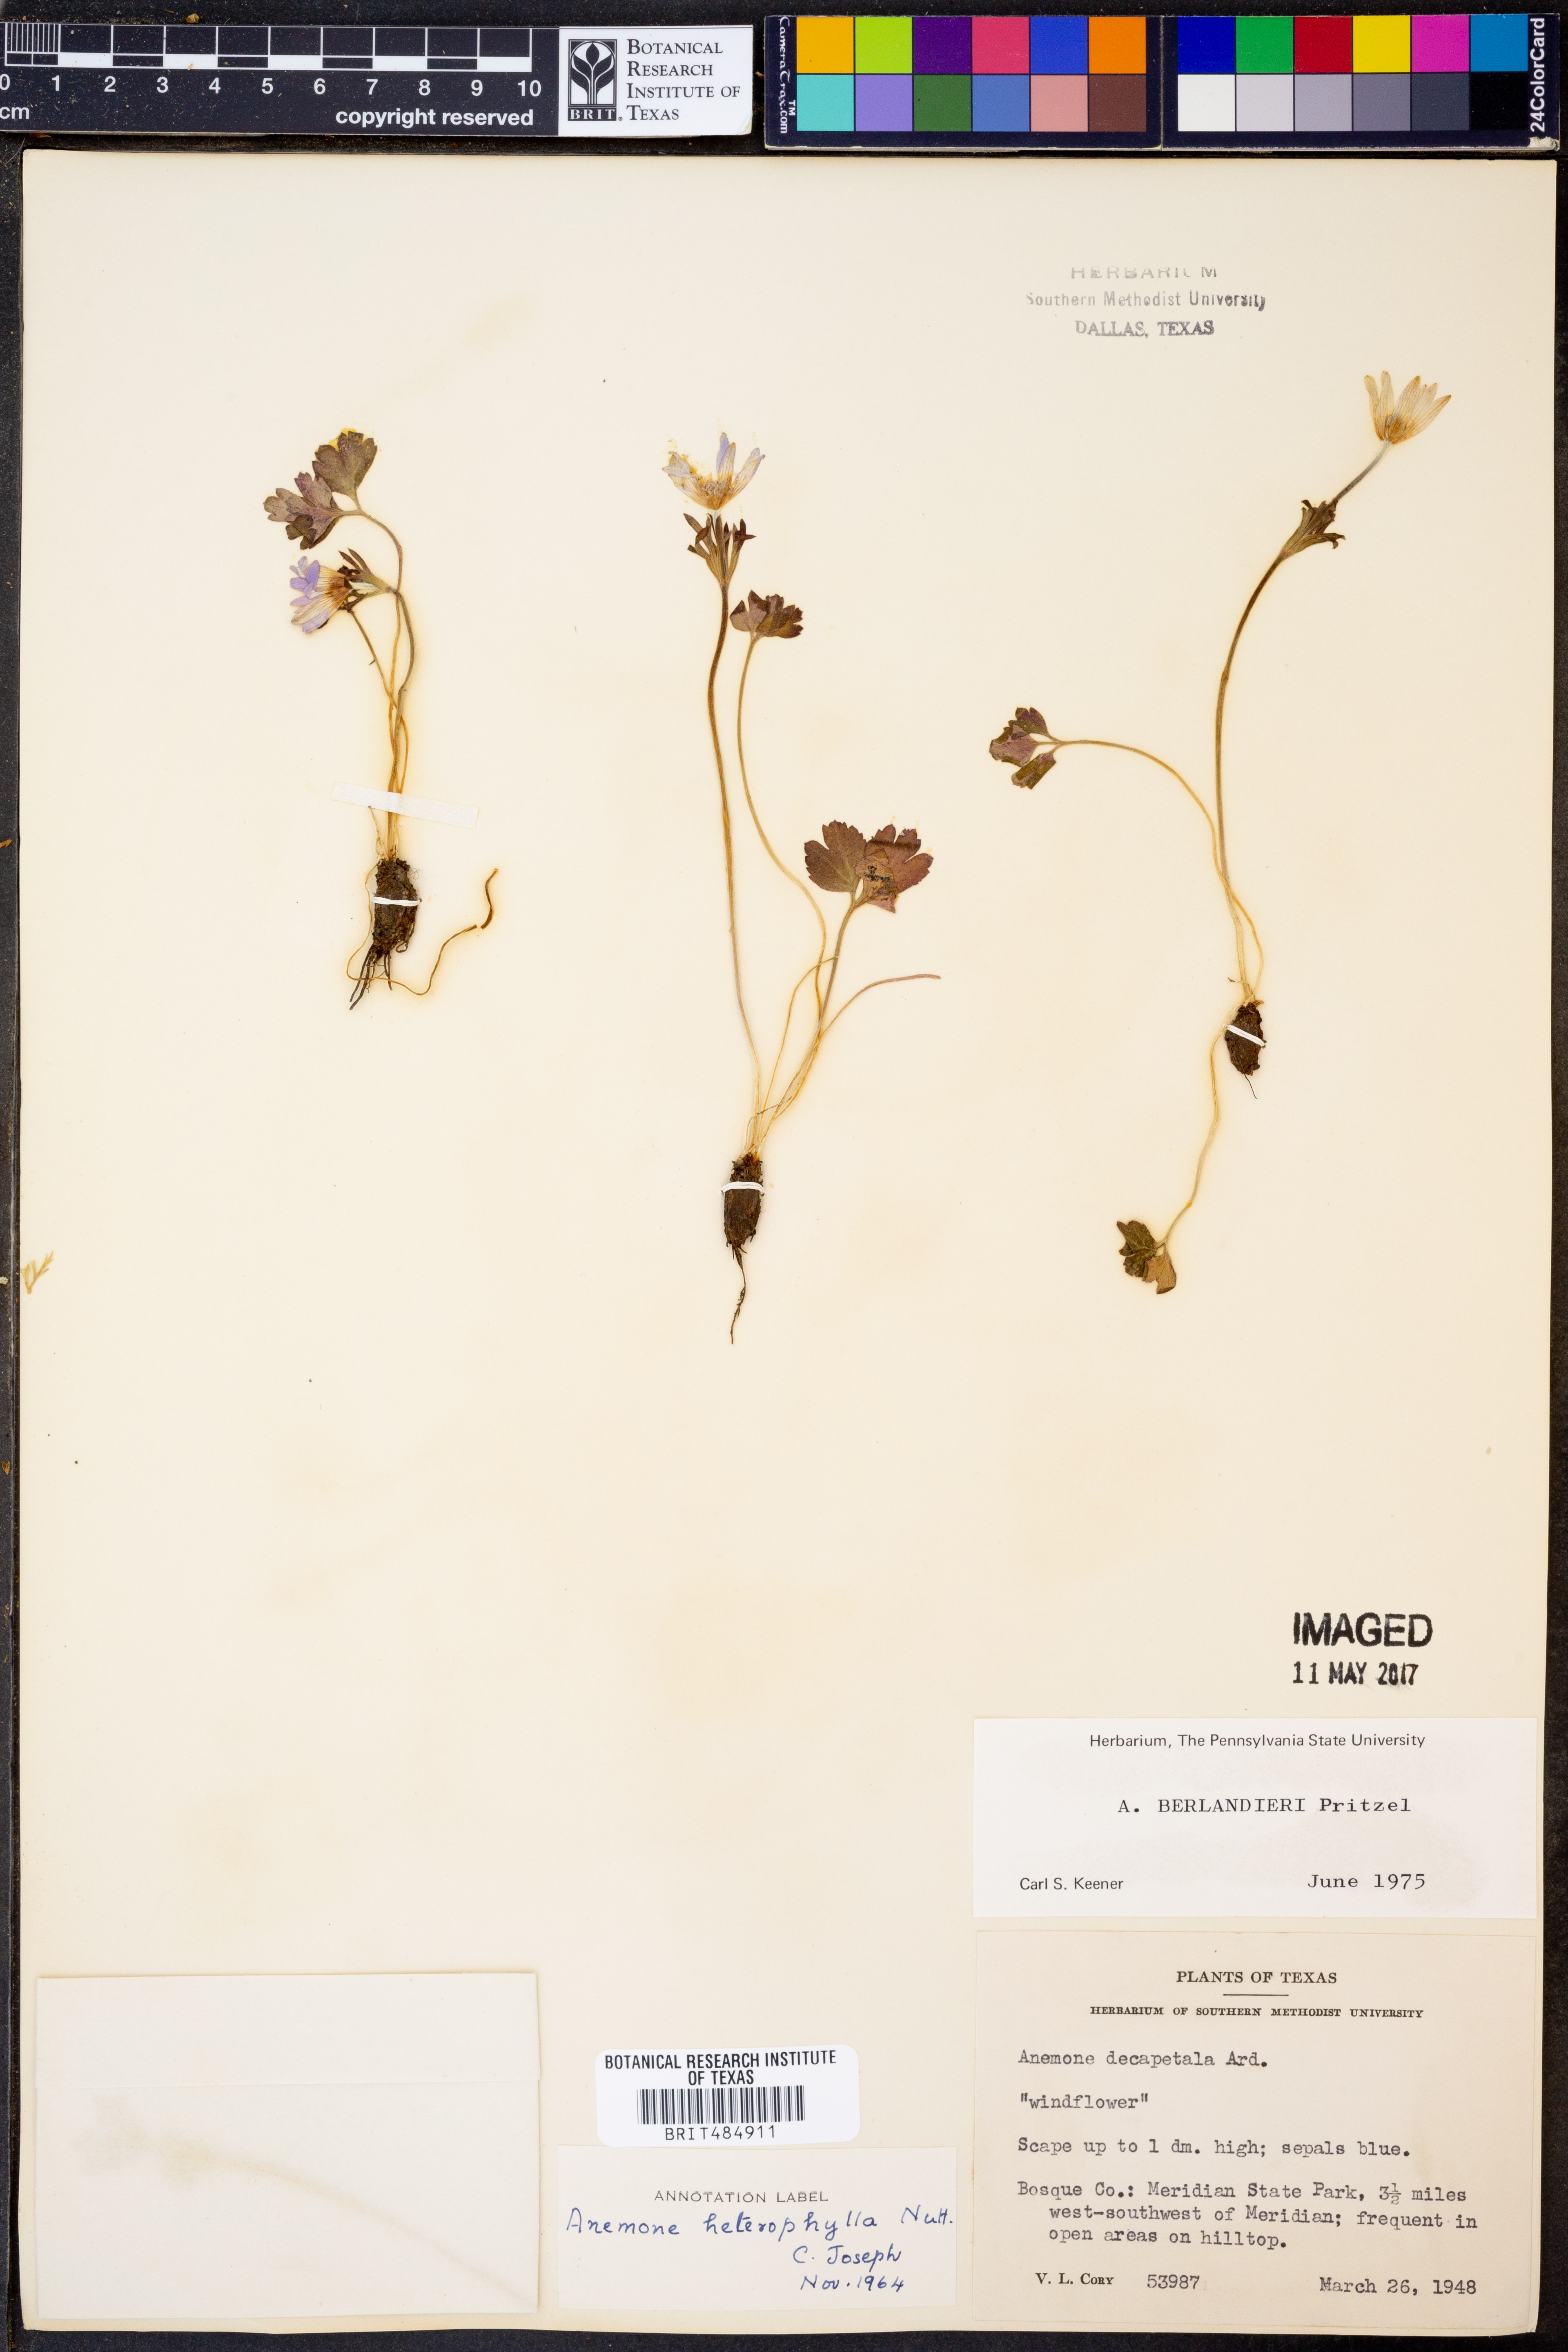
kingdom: Plantae
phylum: Tracheophyta
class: Magnoliopsida
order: Ranunculales
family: Ranunculaceae
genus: Anemone
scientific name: Anemone berlandieri
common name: Ten-petal anemone
